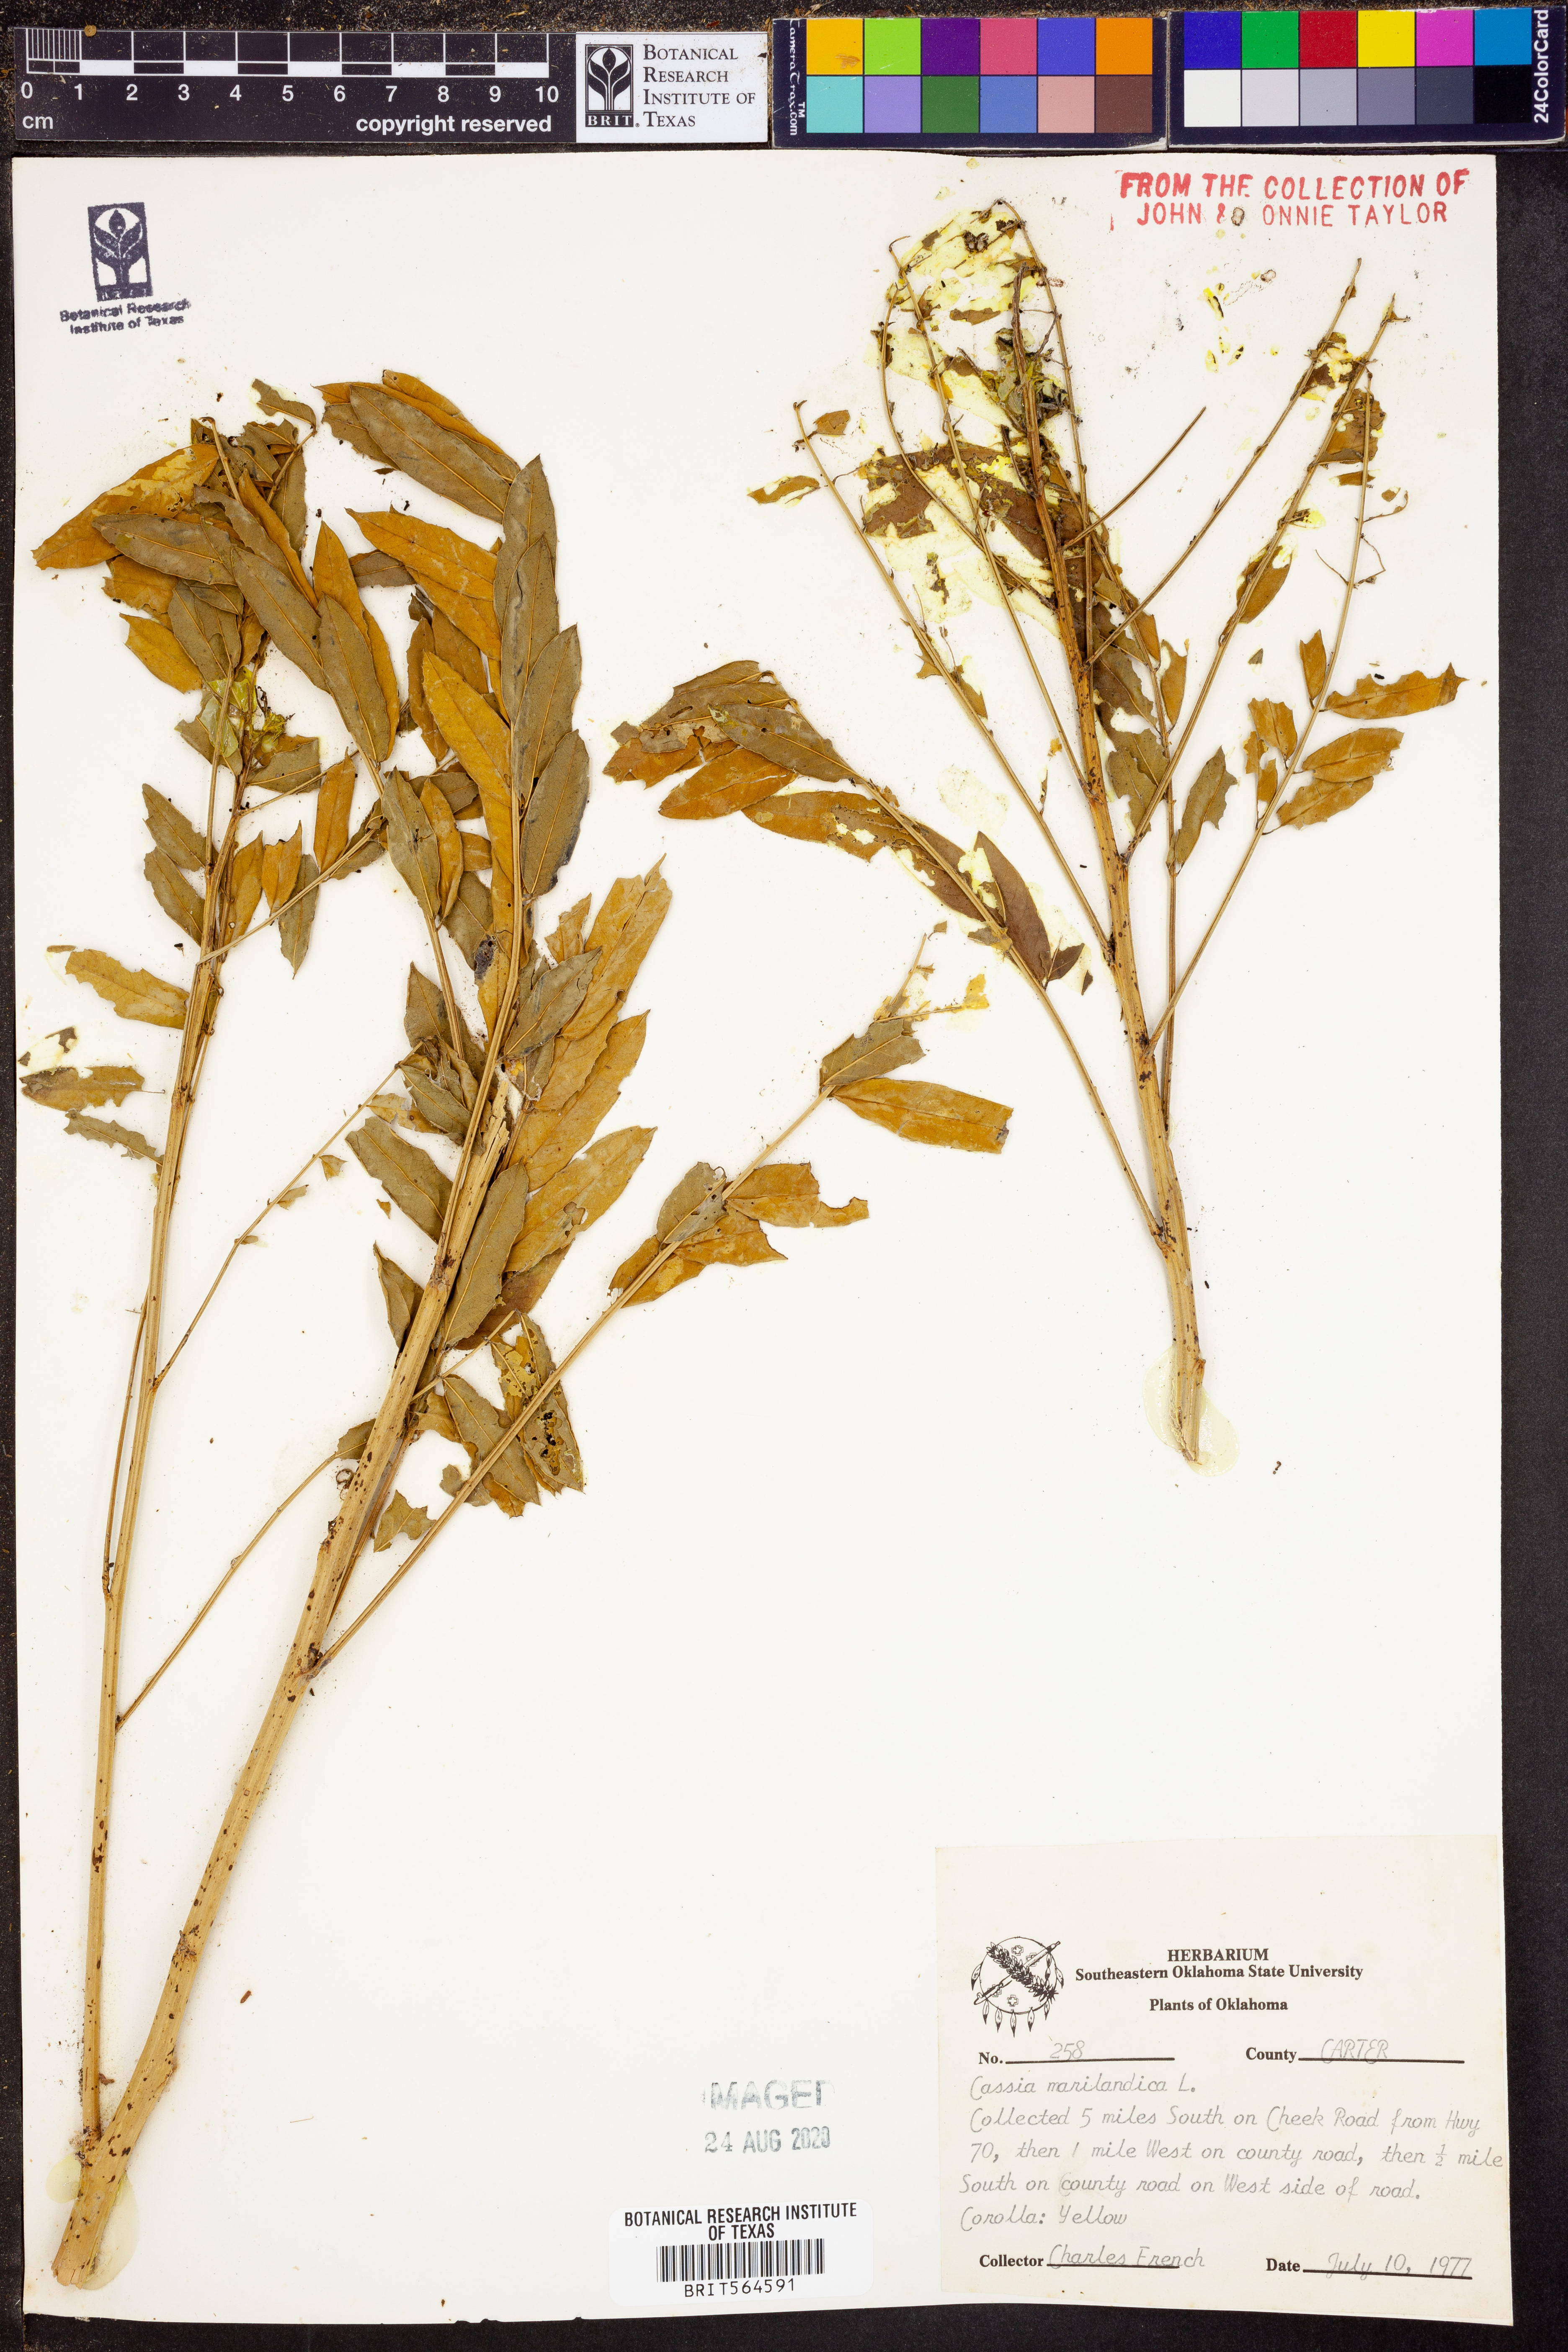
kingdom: Plantae
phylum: Tracheophyta
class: Magnoliopsida
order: Fabales
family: Fabaceae
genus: Senna
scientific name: Senna marilandica
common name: American senna
